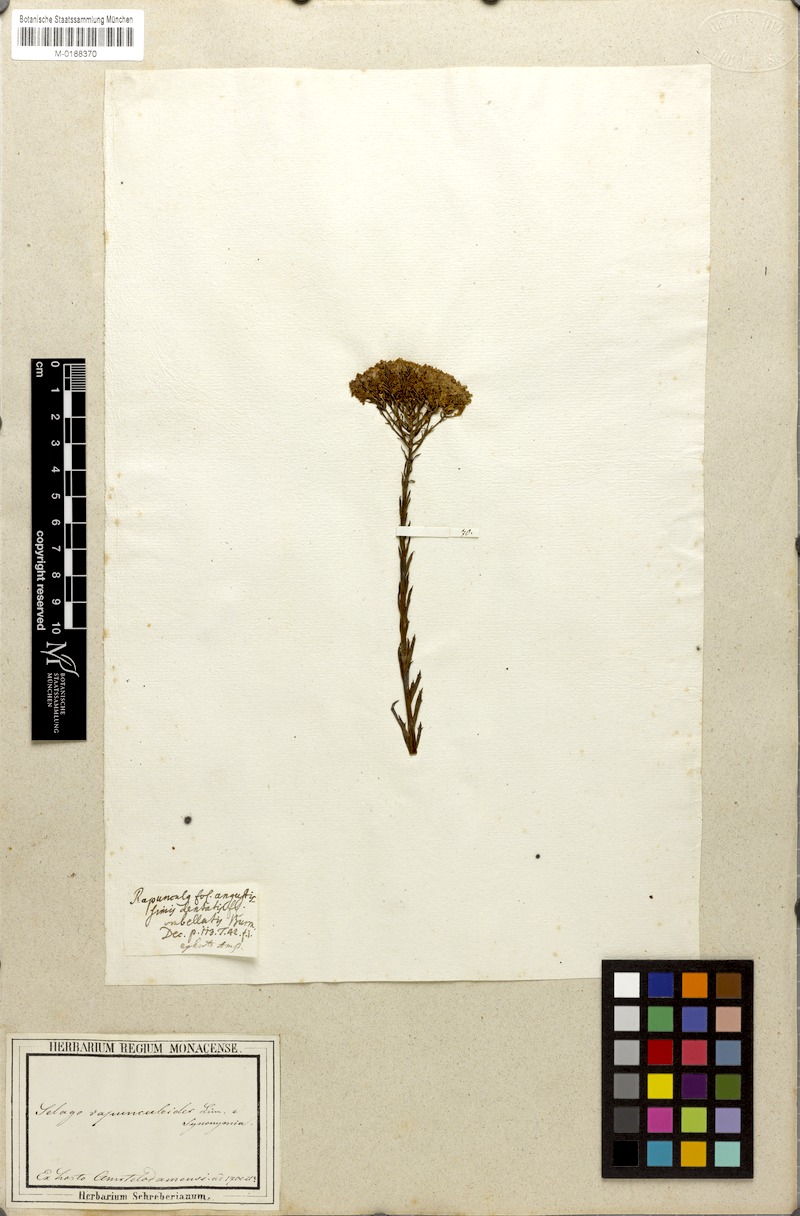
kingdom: Plantae
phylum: Tracheophyta
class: Magnoliopsida
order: Lamiales
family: Scrophulariaceae
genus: Pseudoselago
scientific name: Pseudoselago spuria
